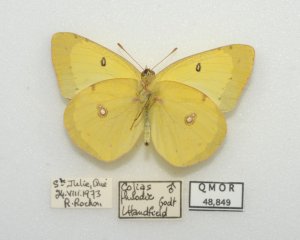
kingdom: Animalia
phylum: Arthropoda
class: Insecta
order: Lepidoptera
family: Pieridae
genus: Colias
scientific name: Colias philodice
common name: Clouded Sulphur
